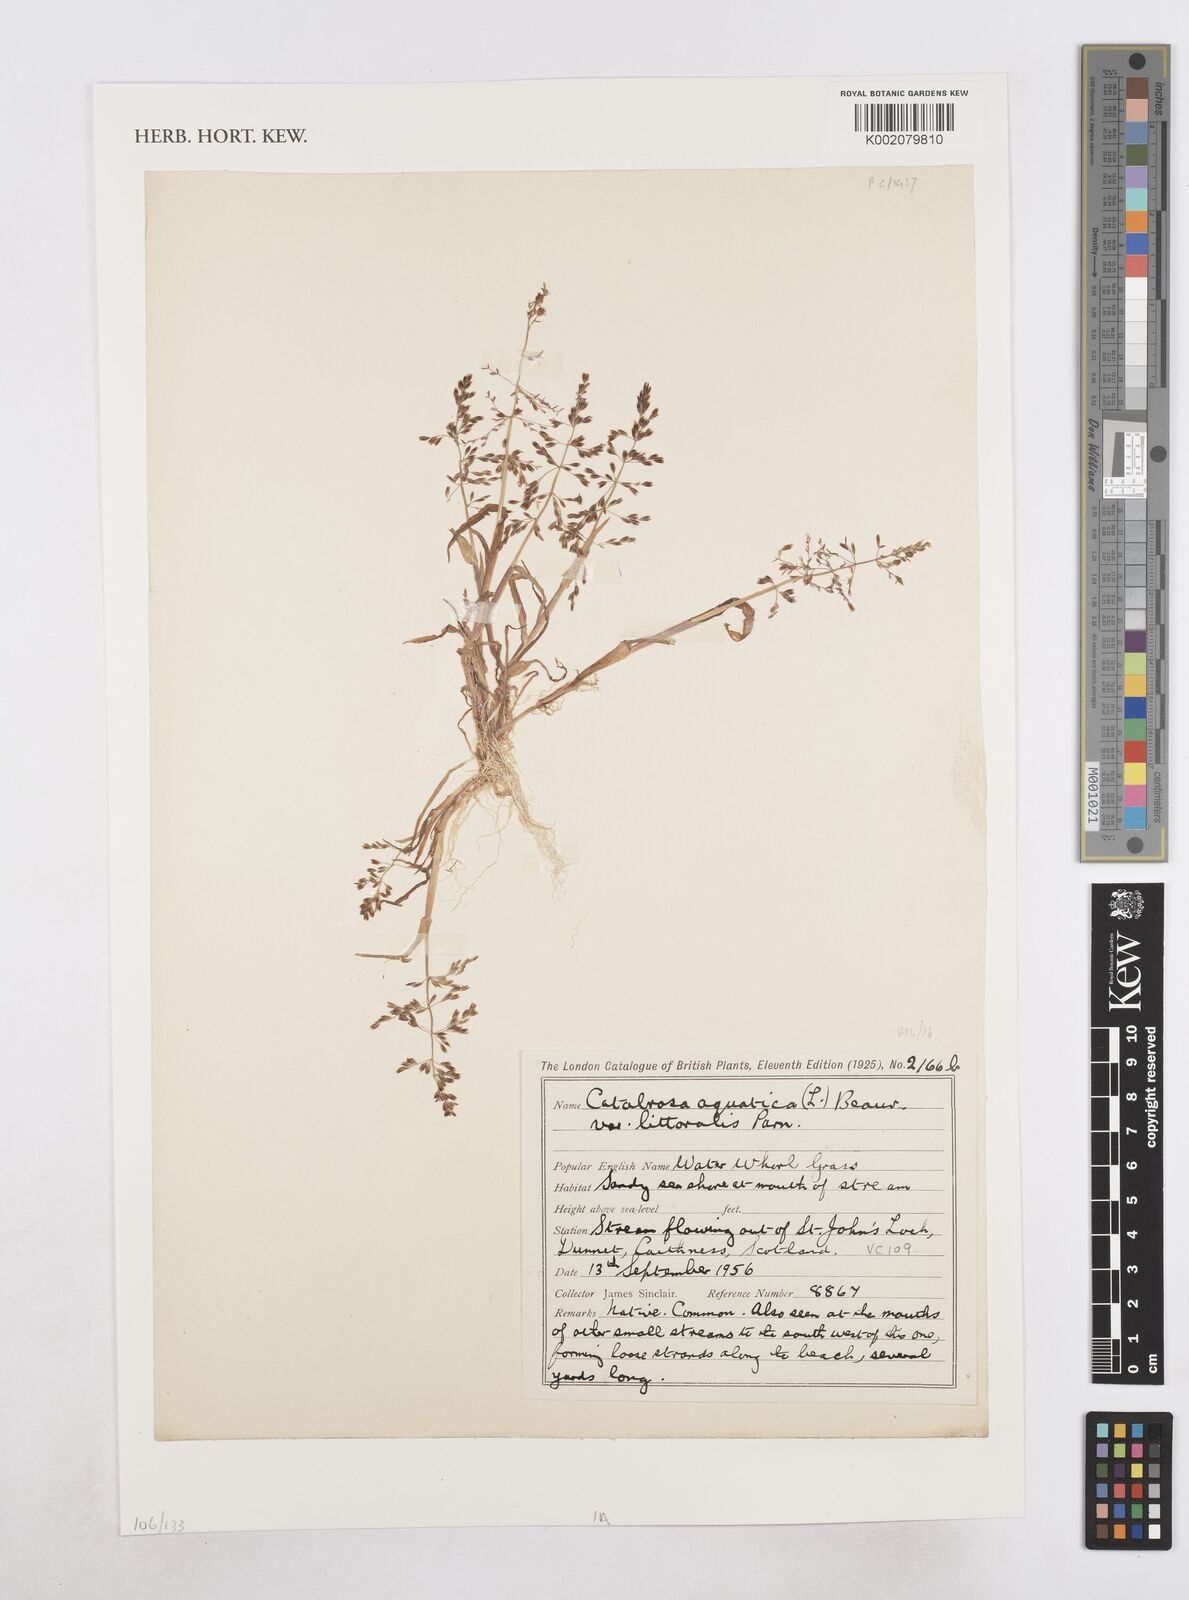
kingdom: Plantae
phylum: Tracheophyta
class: Liliopsida
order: Poales
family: Poaceae
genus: Catabrosa
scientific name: Catabrosa aquatica
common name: Whorl-grass
